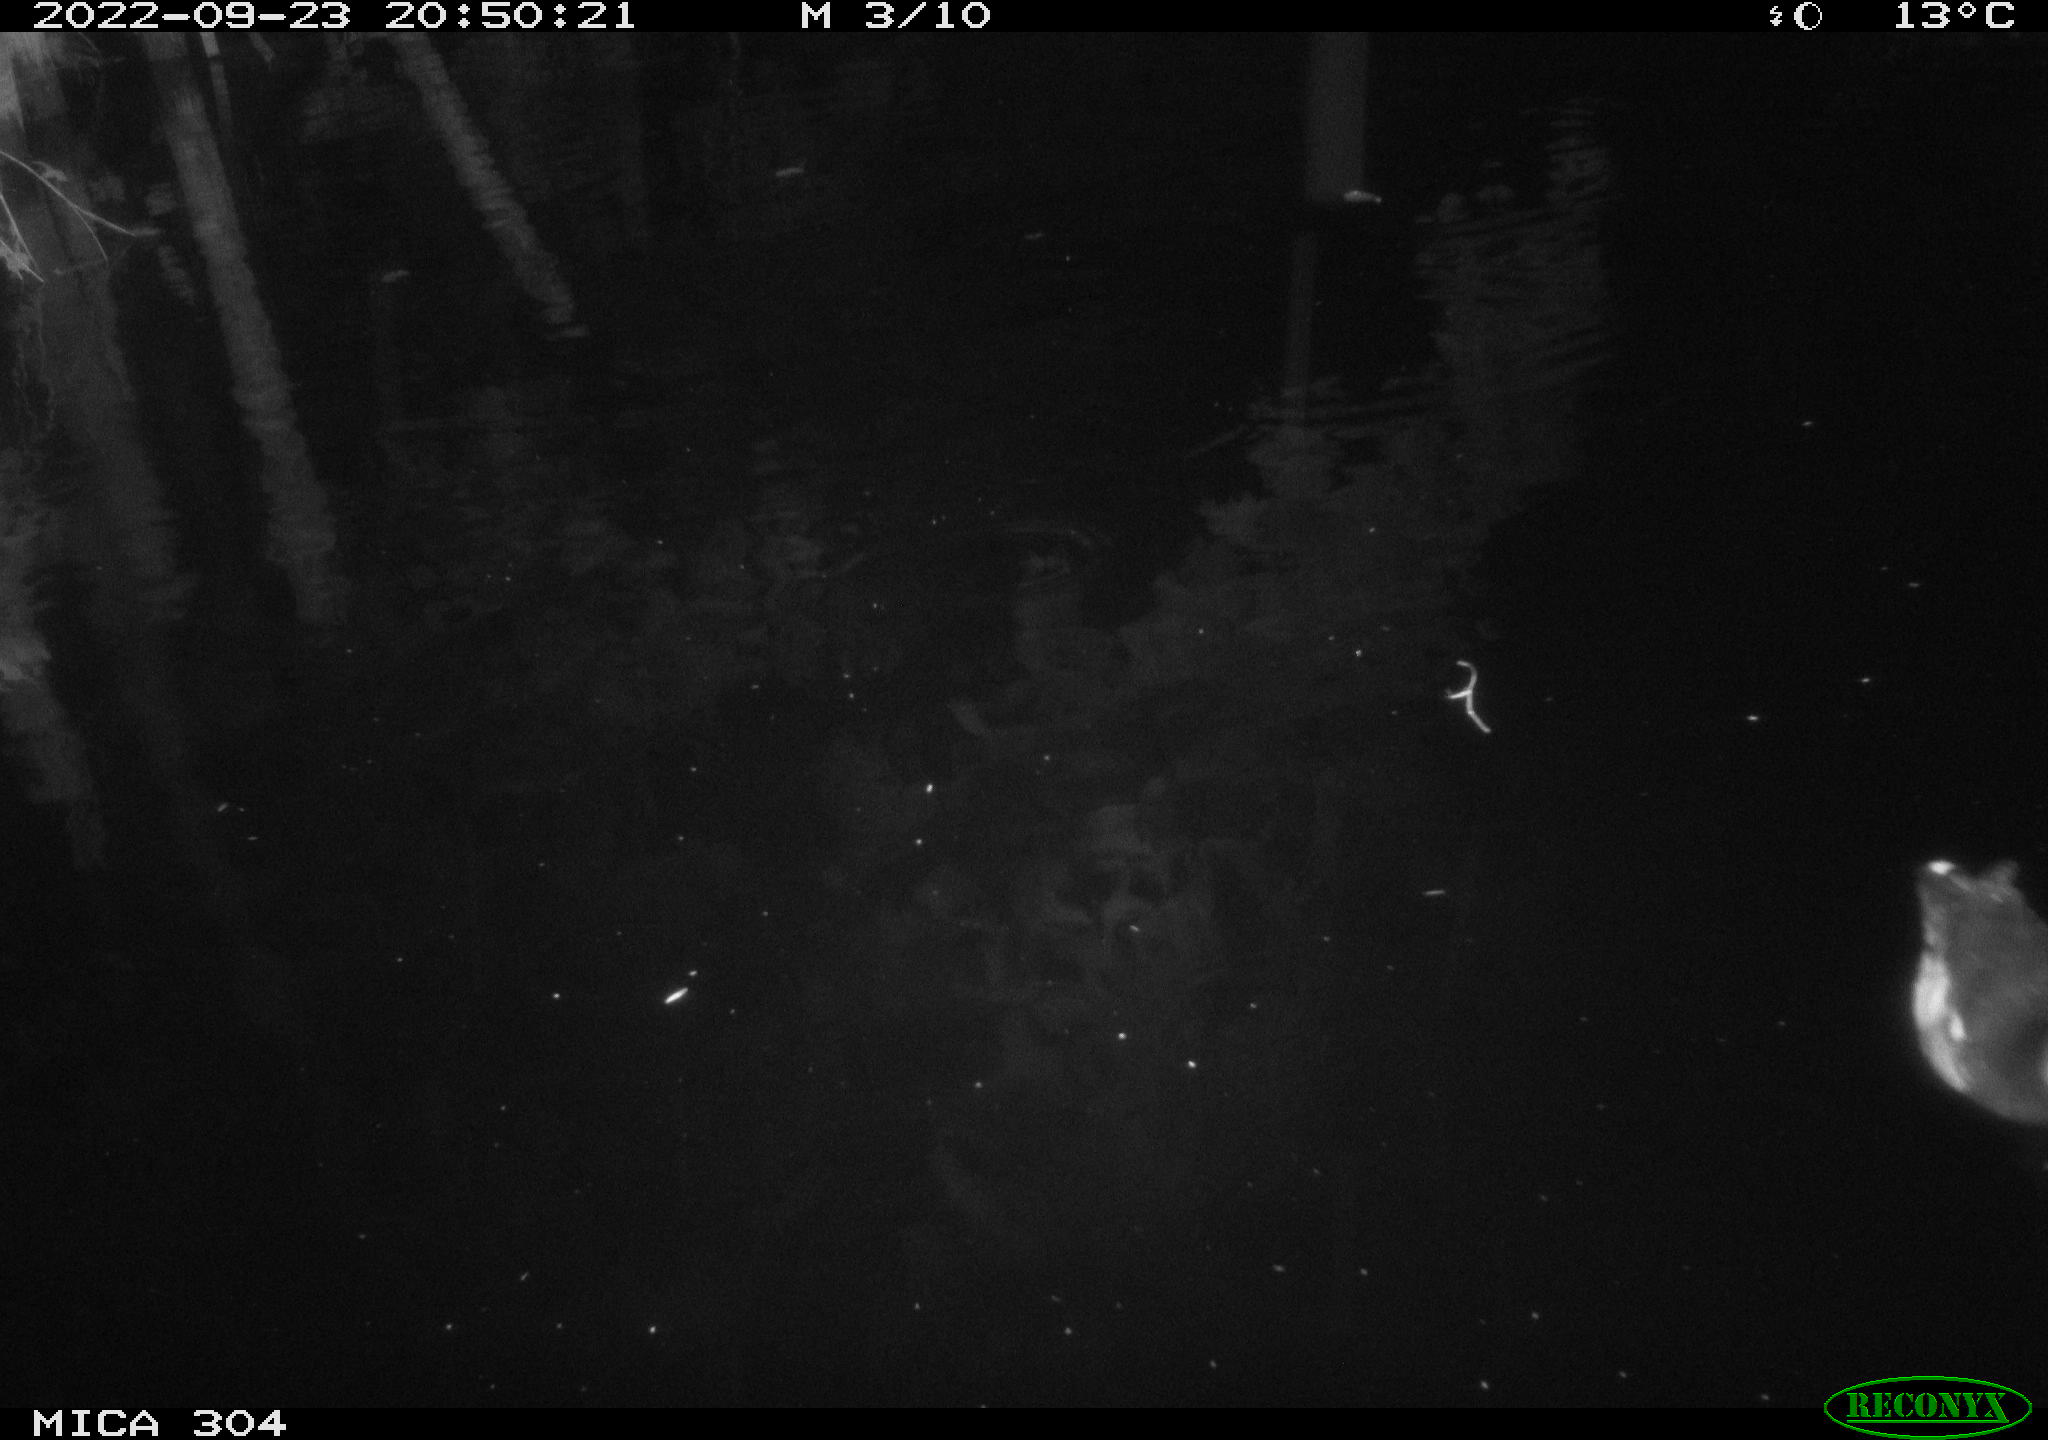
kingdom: Animalia
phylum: Chordata
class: Aves
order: Gruiformes
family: Rallidae
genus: Gallinula
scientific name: Gallinula chloropus
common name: Common moorhen
